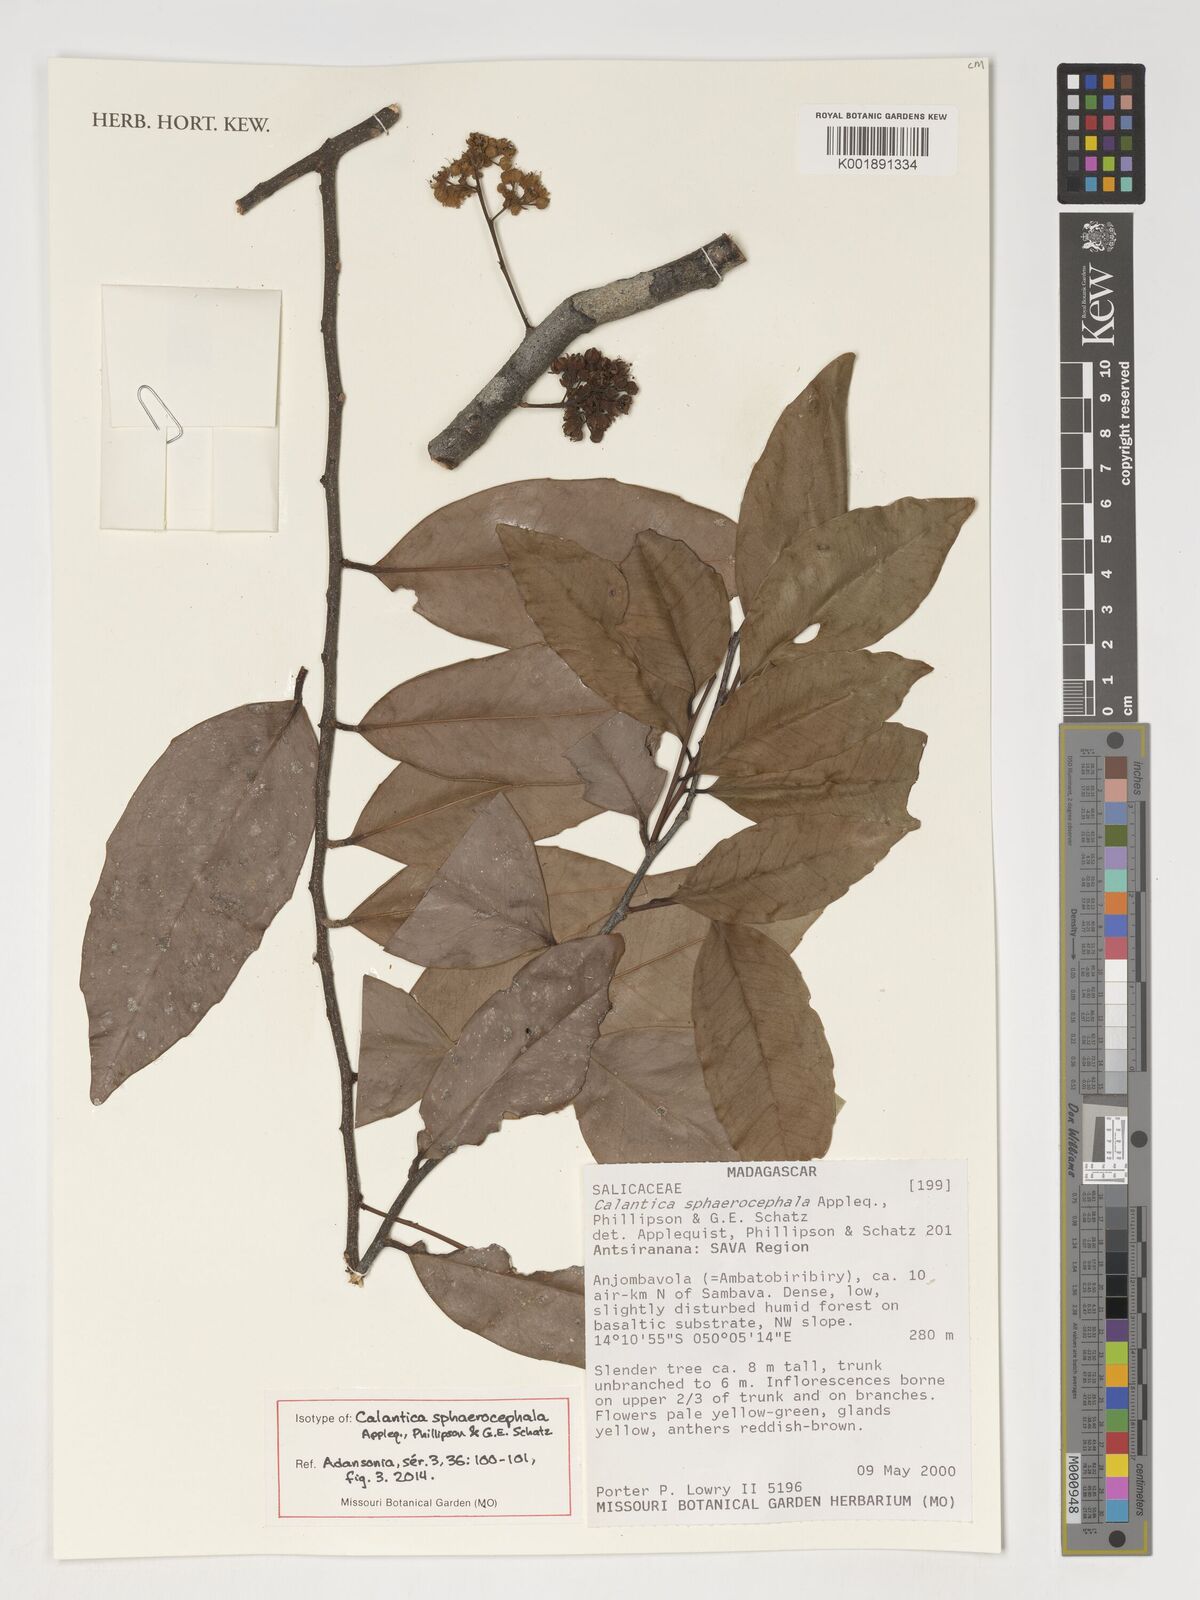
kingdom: Plantae
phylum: Tracheophyta
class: Magnoliopsida
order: Malpighiales
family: Salicaceae
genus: Calantica
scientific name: Calantica sphaerocephala
